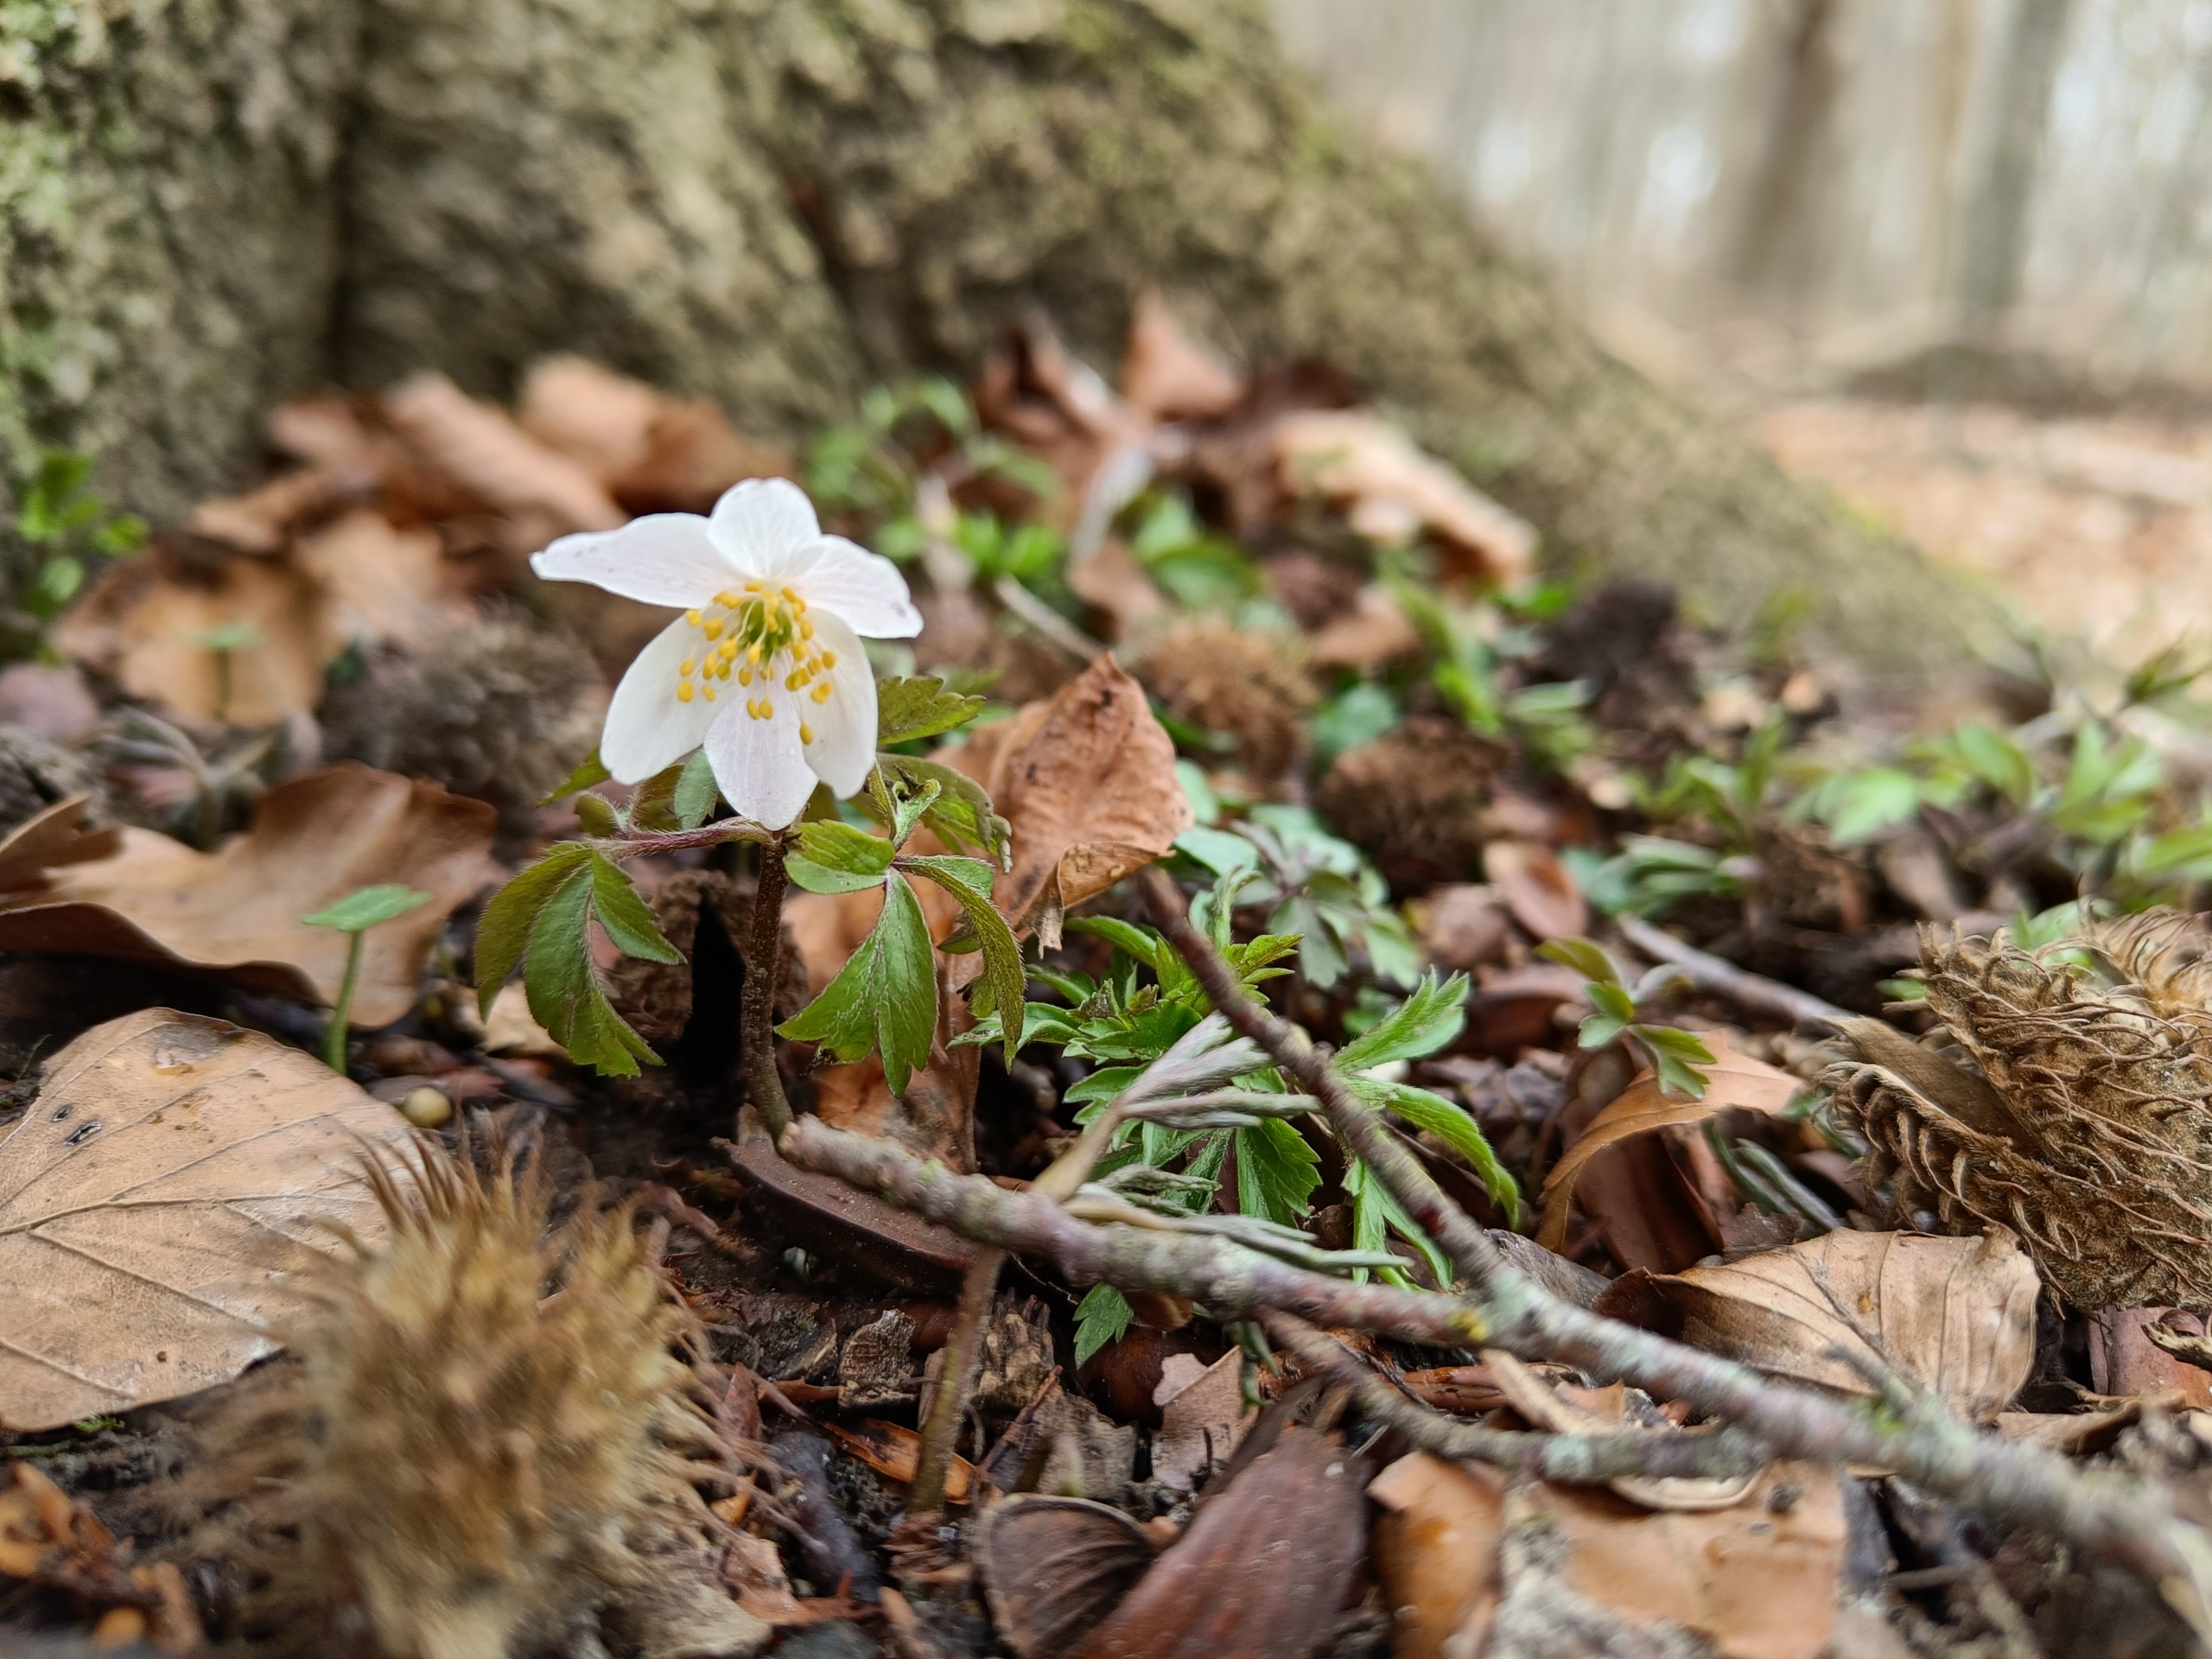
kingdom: Plantae
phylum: Tracheophyta
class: Magnoliopsida
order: Ranunculales
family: Ranunculaceae
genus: Anemone
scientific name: Anemone nemorosa
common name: Hvid anemone
